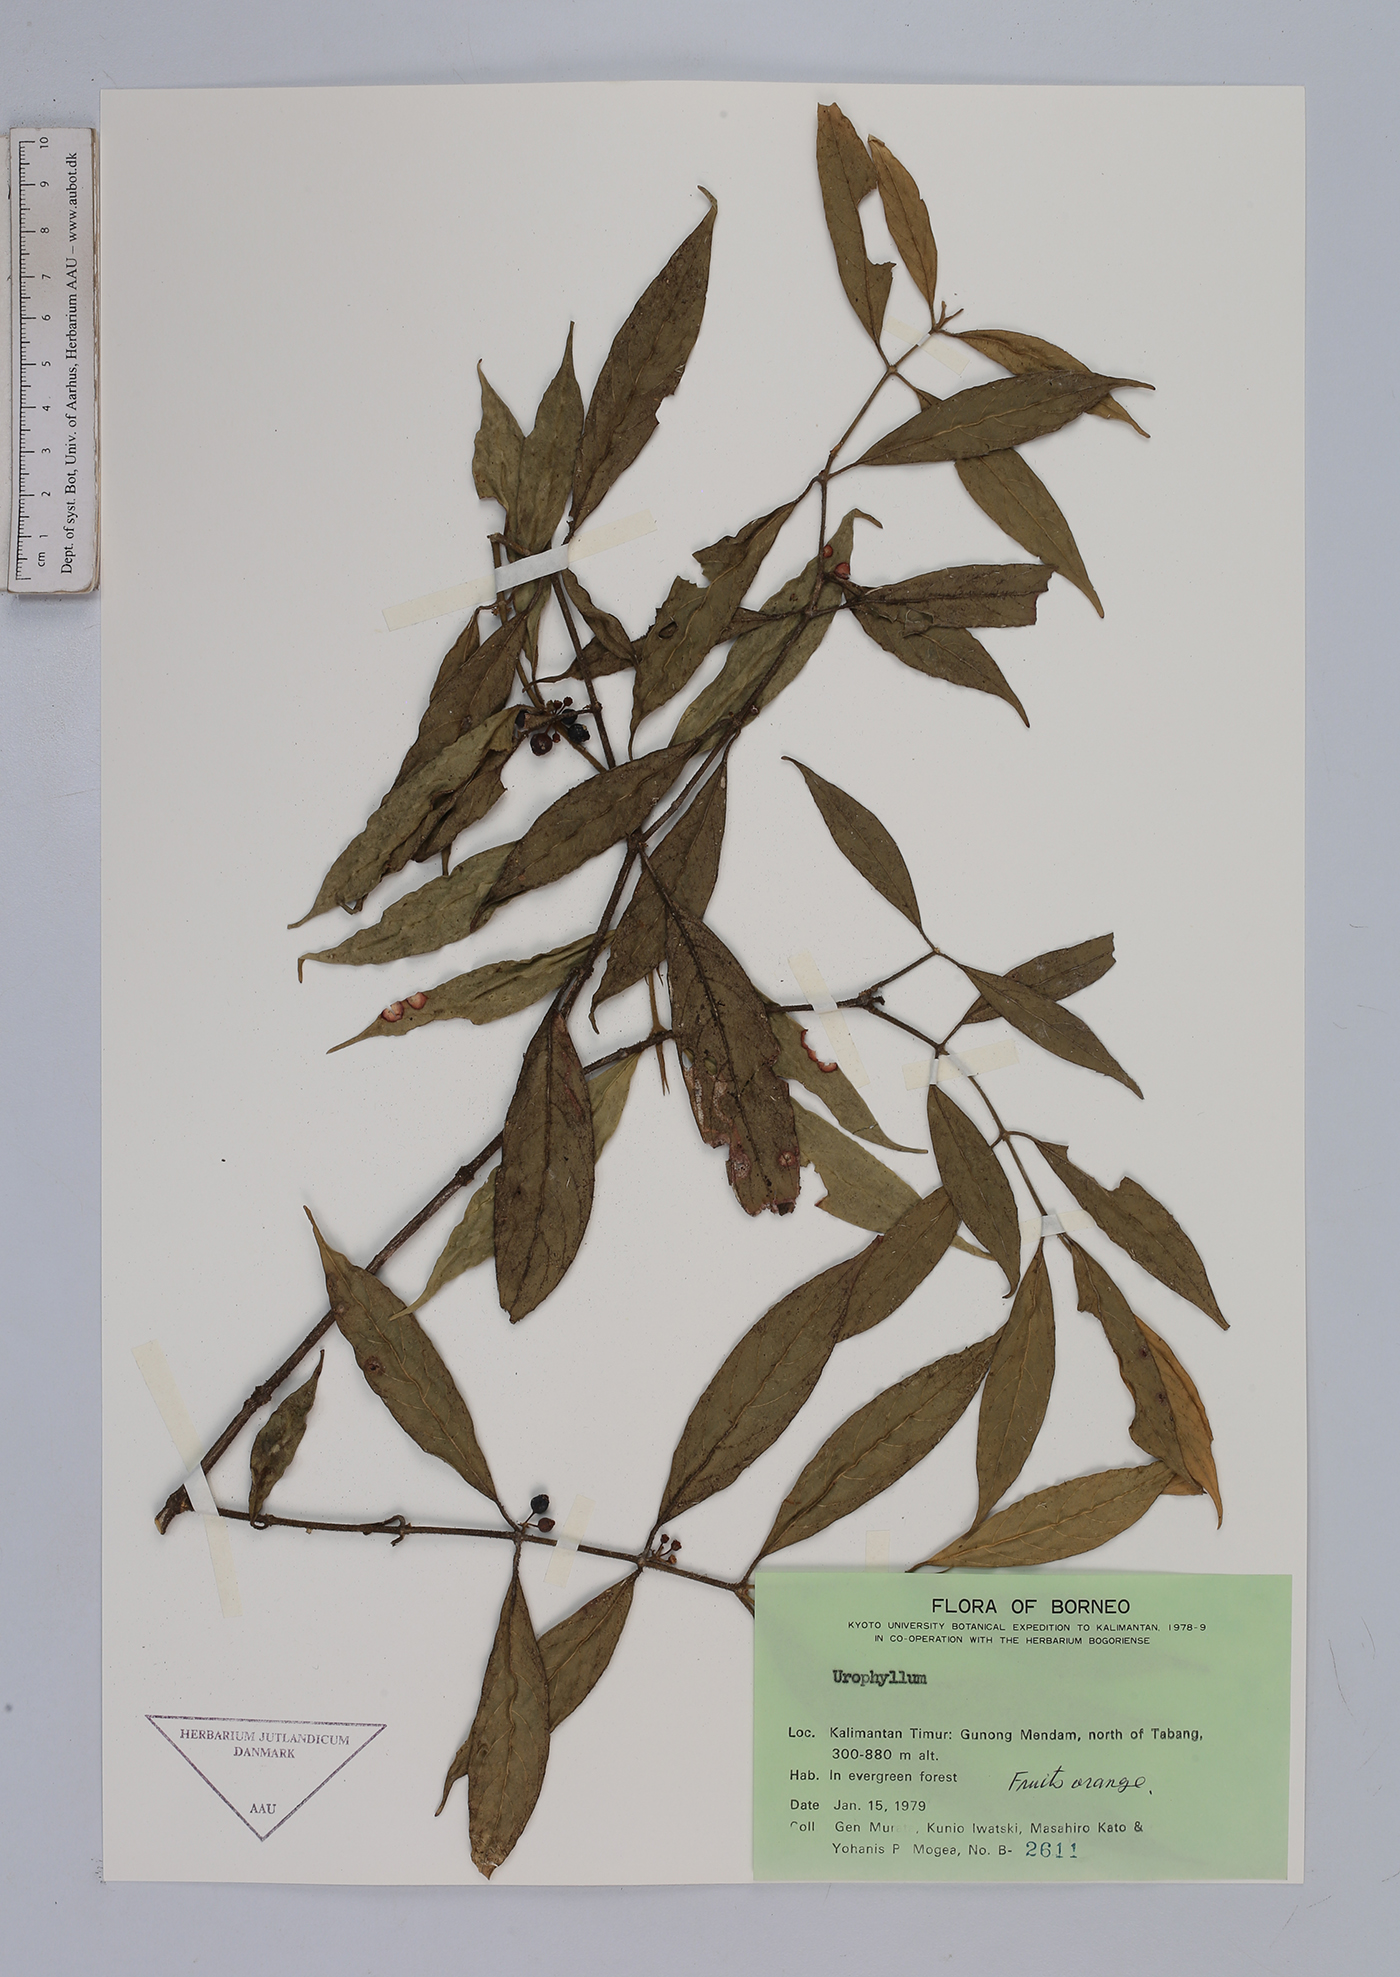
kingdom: Plantae
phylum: Tracheophyta
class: Magnoliopsida
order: Gentianales
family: Rubiaceae
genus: Urophyllum
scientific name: Urophyllum
